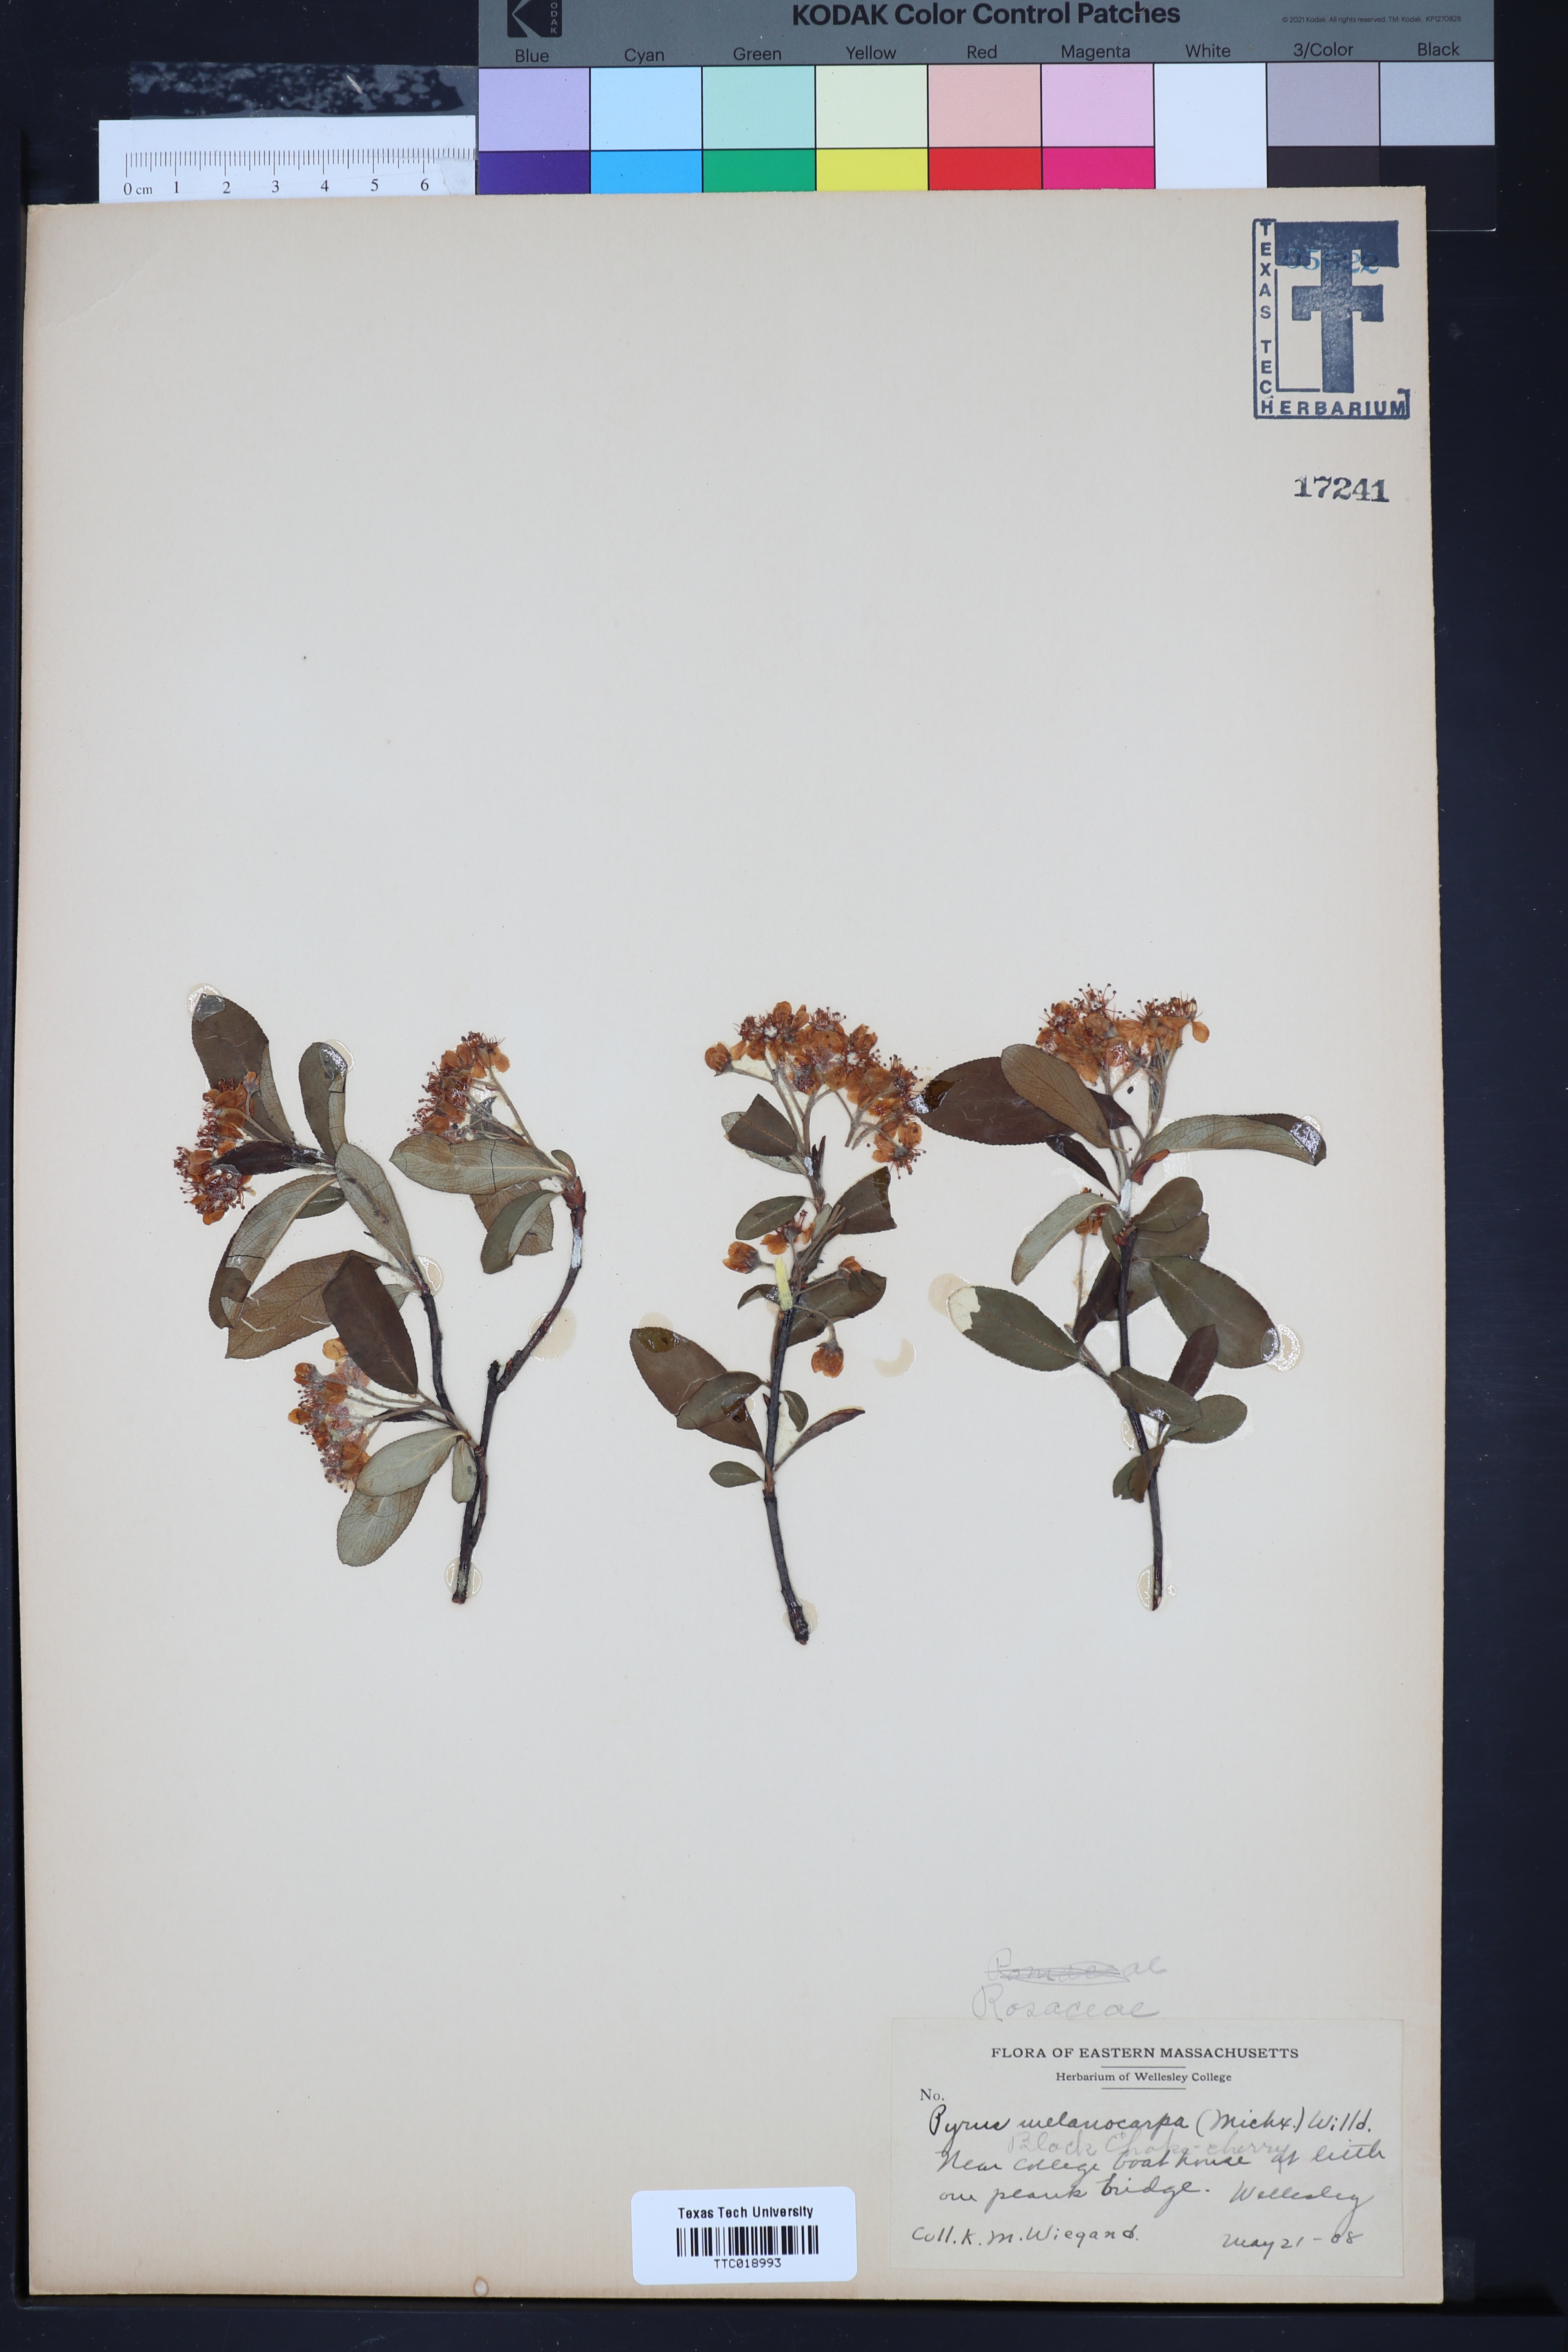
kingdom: Plantae
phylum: Tracheophyta
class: Magnoliopsida
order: Rosales
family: Rosaceae
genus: Aronia
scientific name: Aronia melanocarpa
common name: Black chokeberry
